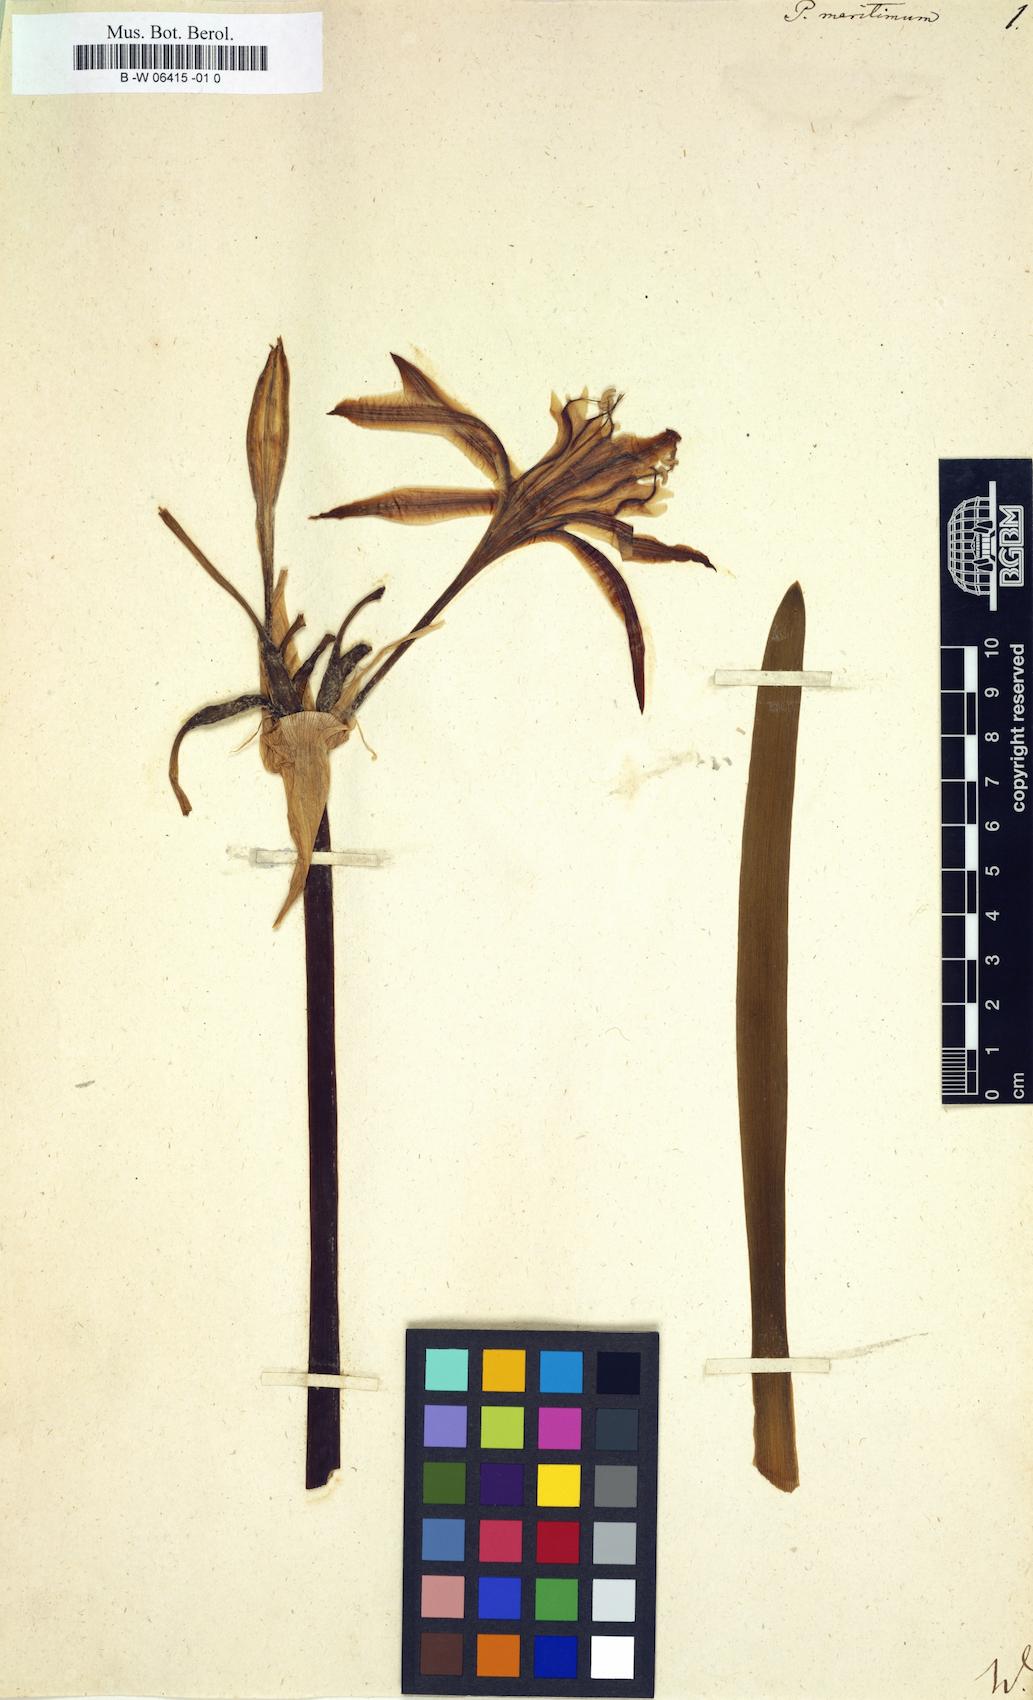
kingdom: Plantae
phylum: Tracheophyta
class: Liliopsida
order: Asparagales
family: Amaryllidaceae
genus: Pancratium
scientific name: Pancratium maritimum
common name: Sea-daffodil
